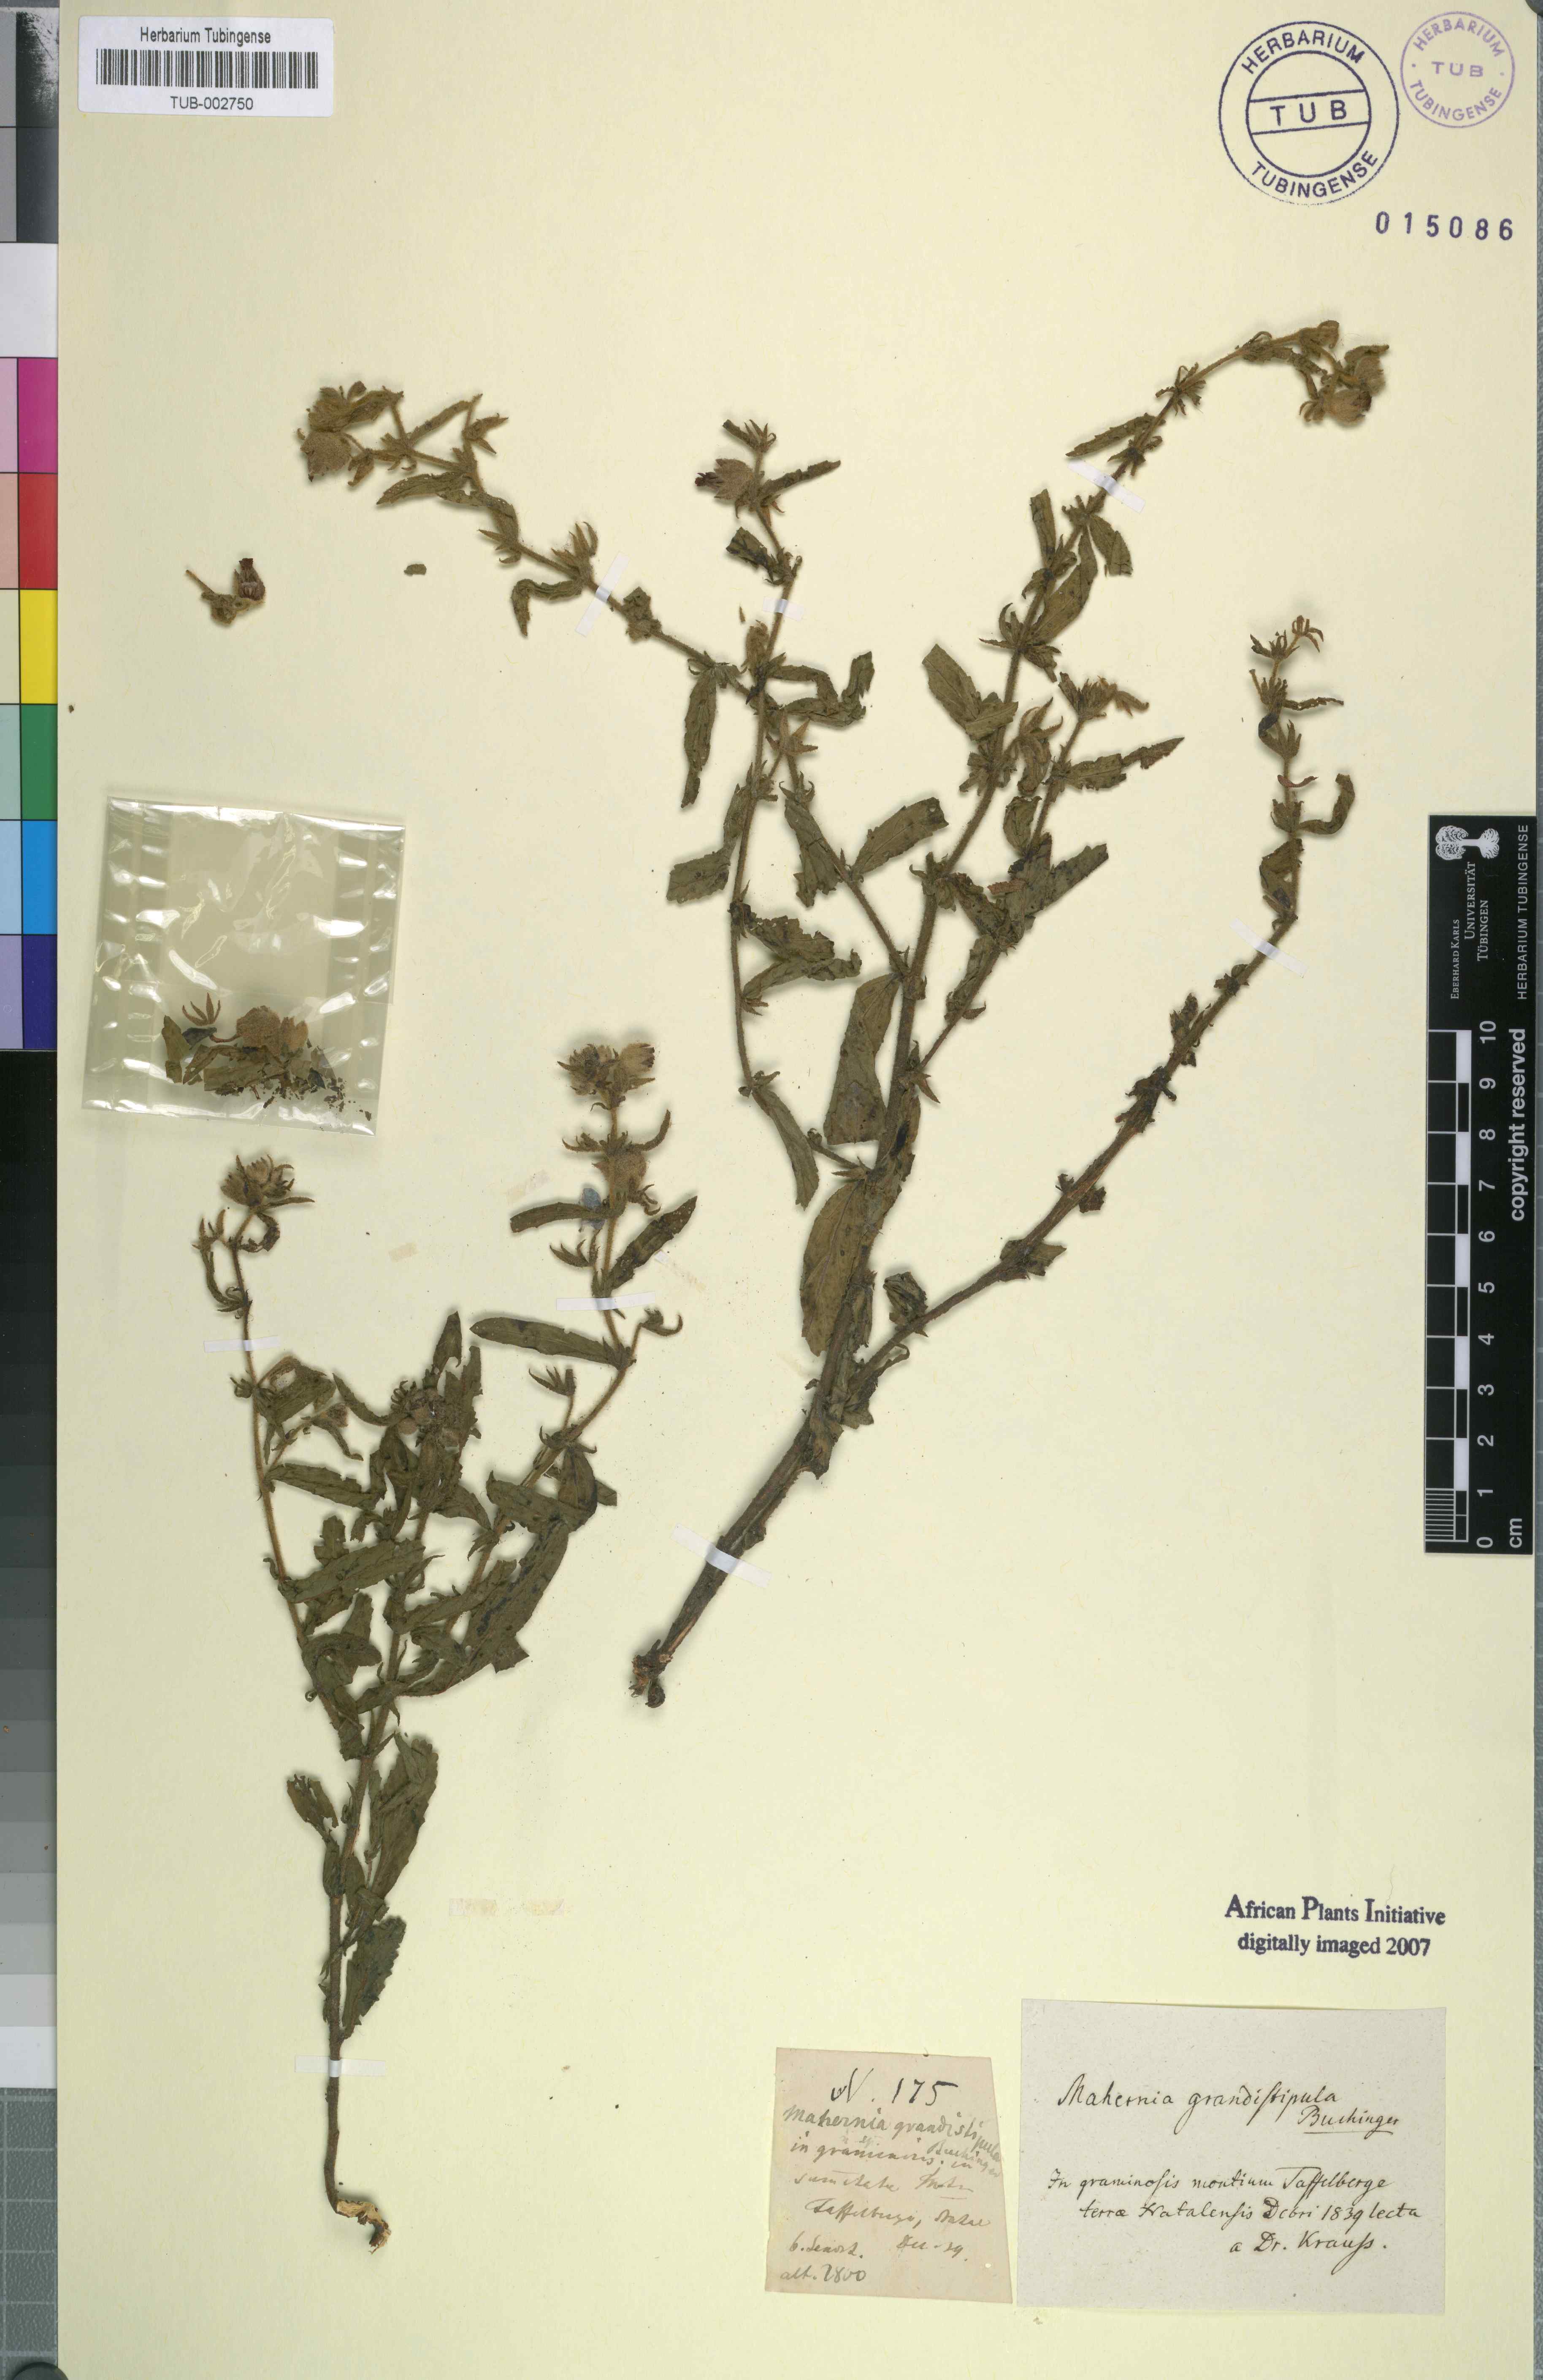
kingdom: Plantae
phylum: Tracheophyta
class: Magnoliopsida
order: Malvales
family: Malvaceae
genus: Hermannia
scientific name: Hermannia grandistipula
